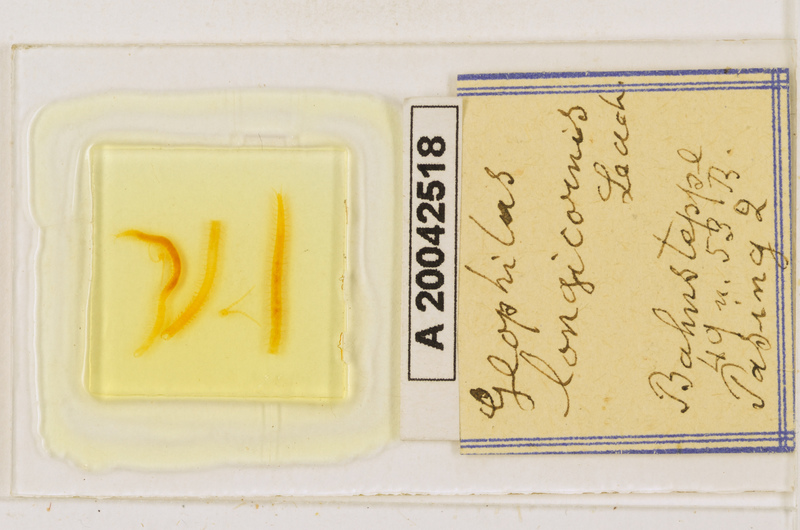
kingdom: Animalia
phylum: Arthropoda
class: Chilopoda
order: Geophilomorpha
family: Geophilidae
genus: Geophilus
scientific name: Geophilus flavus
